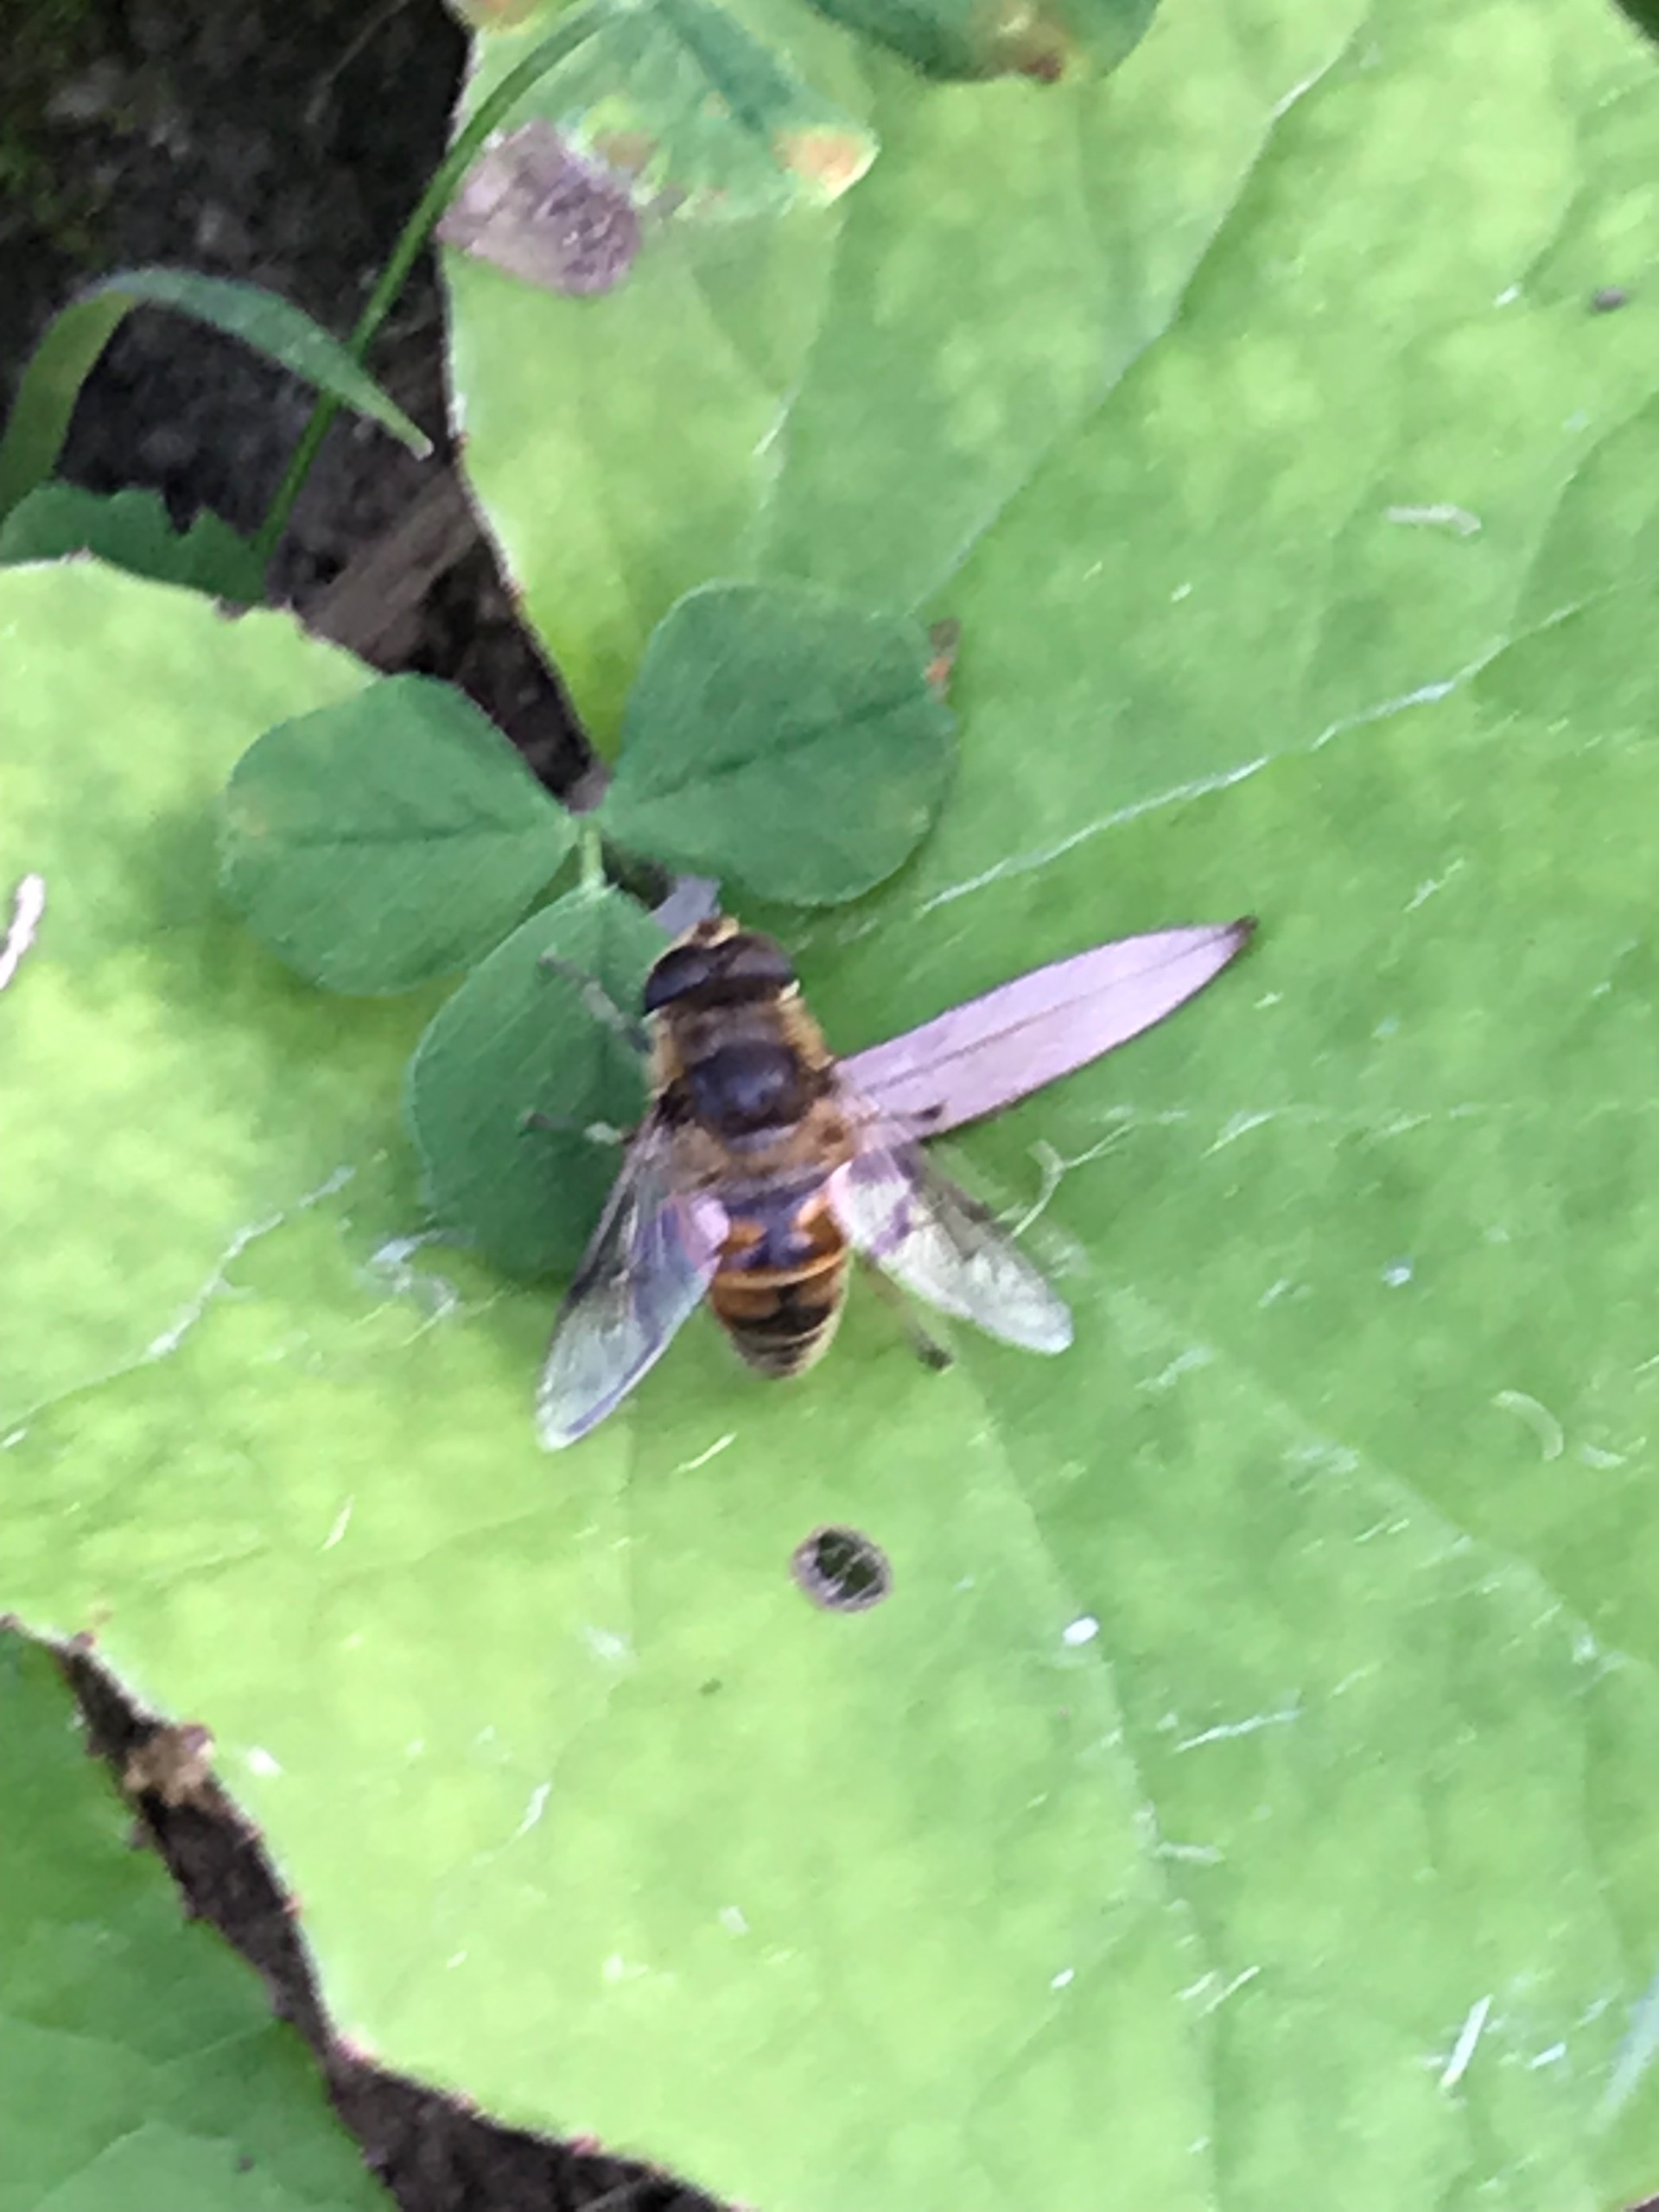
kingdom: Animalia
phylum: Arthropoda
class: Insecta
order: Diptera
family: Syrphidae
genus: Eristalis
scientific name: Eristalis tenax
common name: Droneflue
